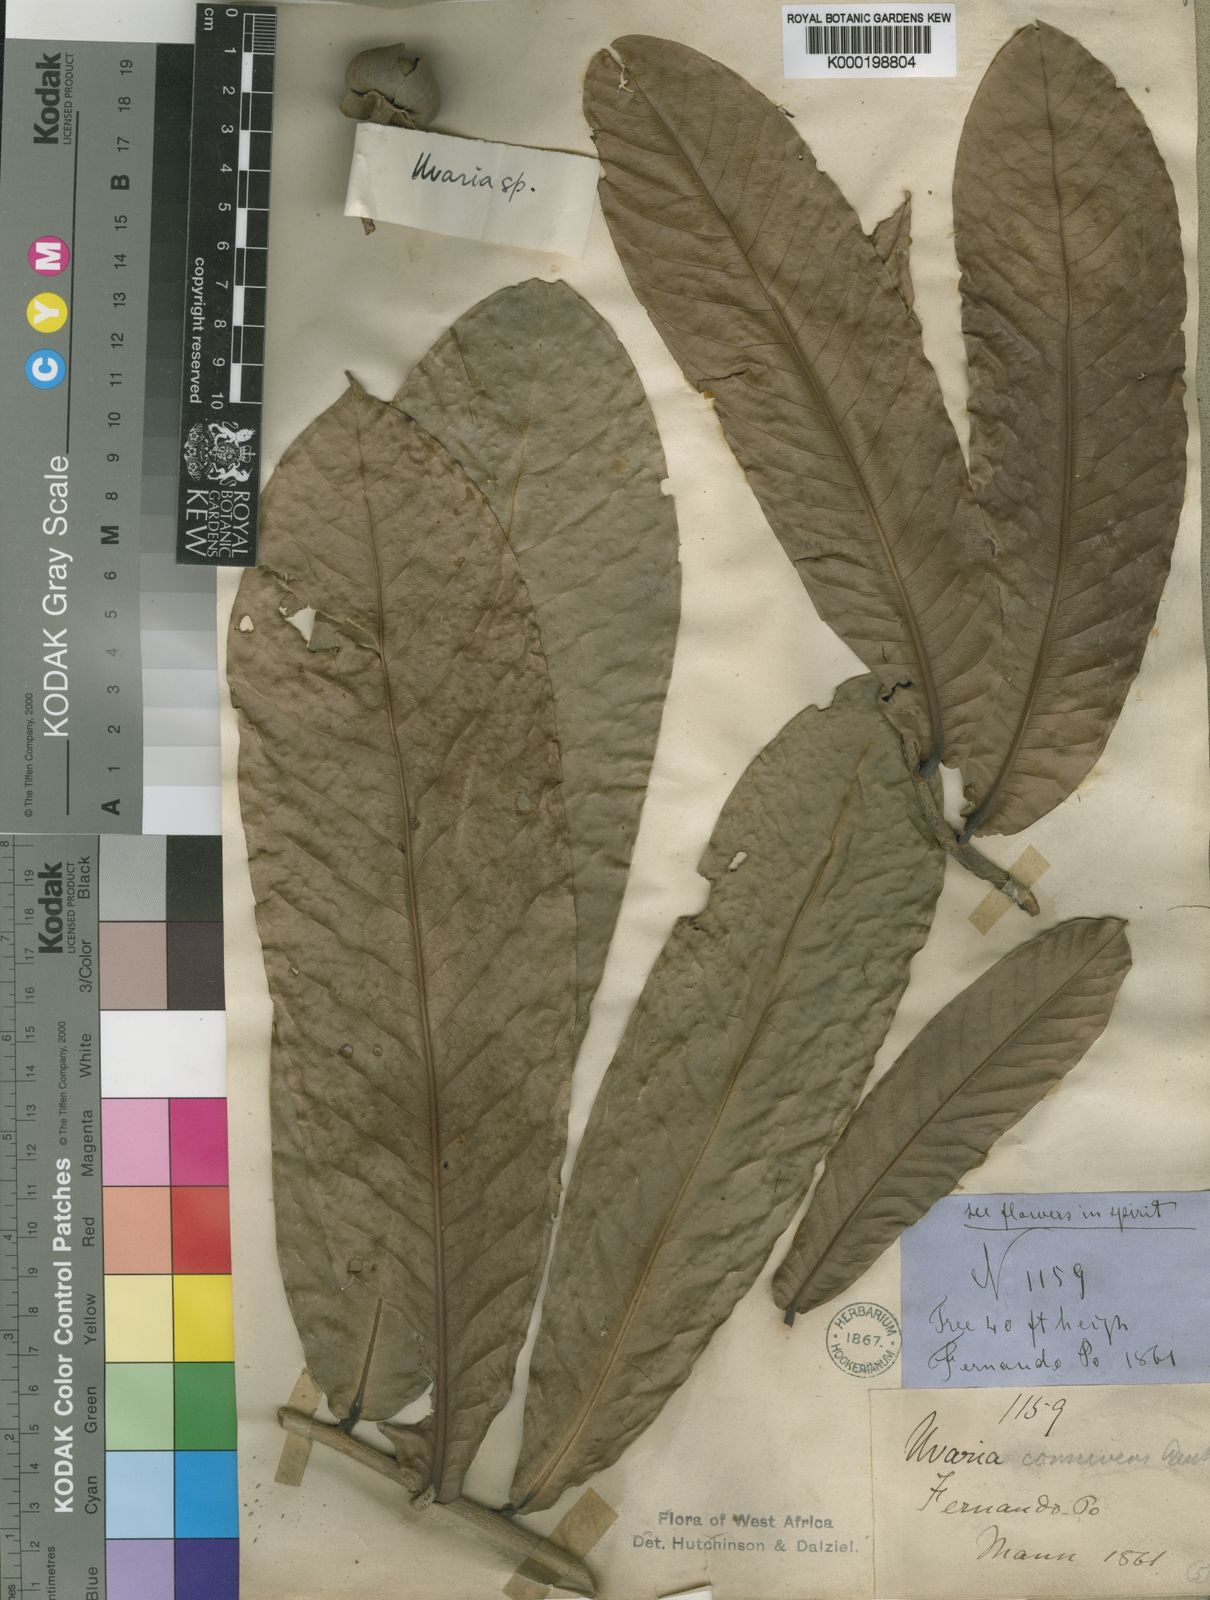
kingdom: Plantae
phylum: Tracheophyta
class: Magnoliopsida
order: Magnoliales
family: Annonaceae
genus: Uvariodendron
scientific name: Uvariodendron connivens
